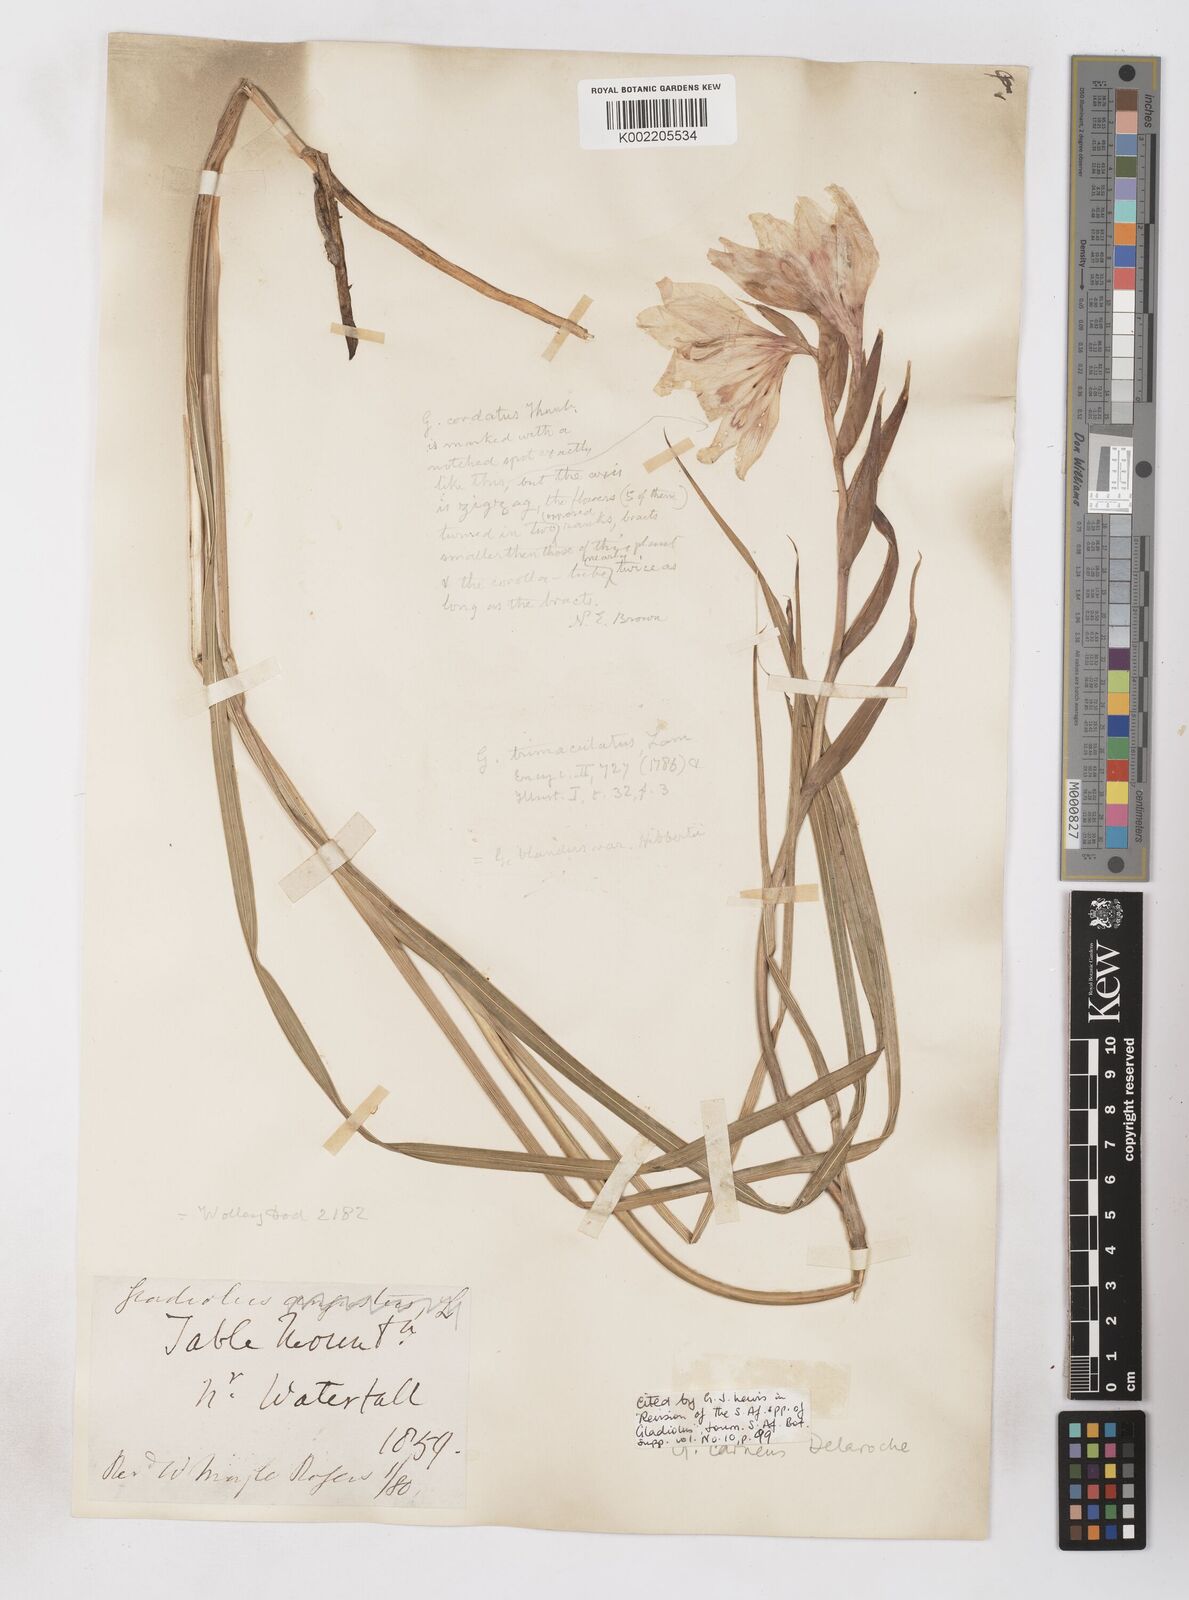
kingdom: Plantae
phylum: Tracheophyta
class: Liliopsida
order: Asparagales
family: Iridaceae
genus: Gladiolus
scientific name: Gladiolus carneus
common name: Painted-lady
